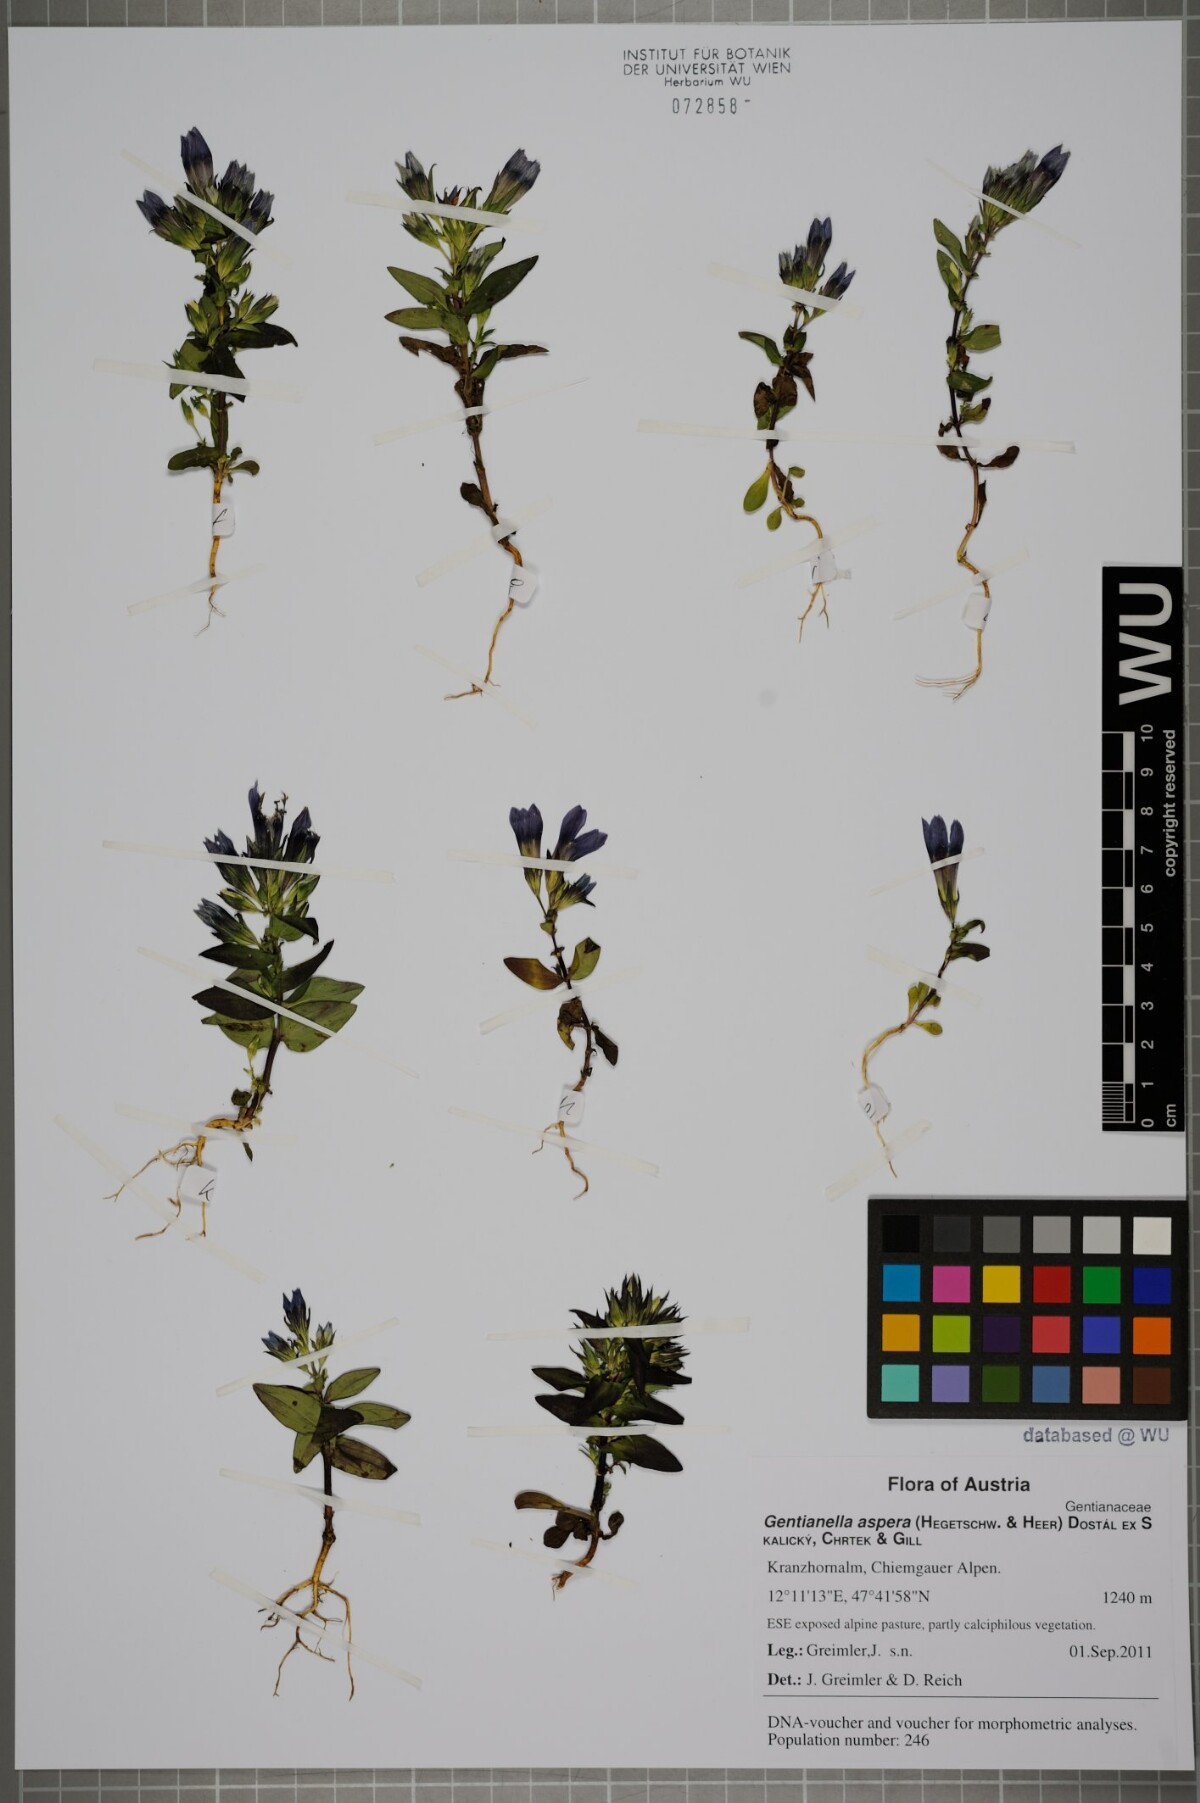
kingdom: Plantae
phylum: Tracheophyta
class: Magnoliopsida
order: Gentianales
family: Gentianaceae
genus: Gentianella
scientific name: Gentianella obtusifolia
